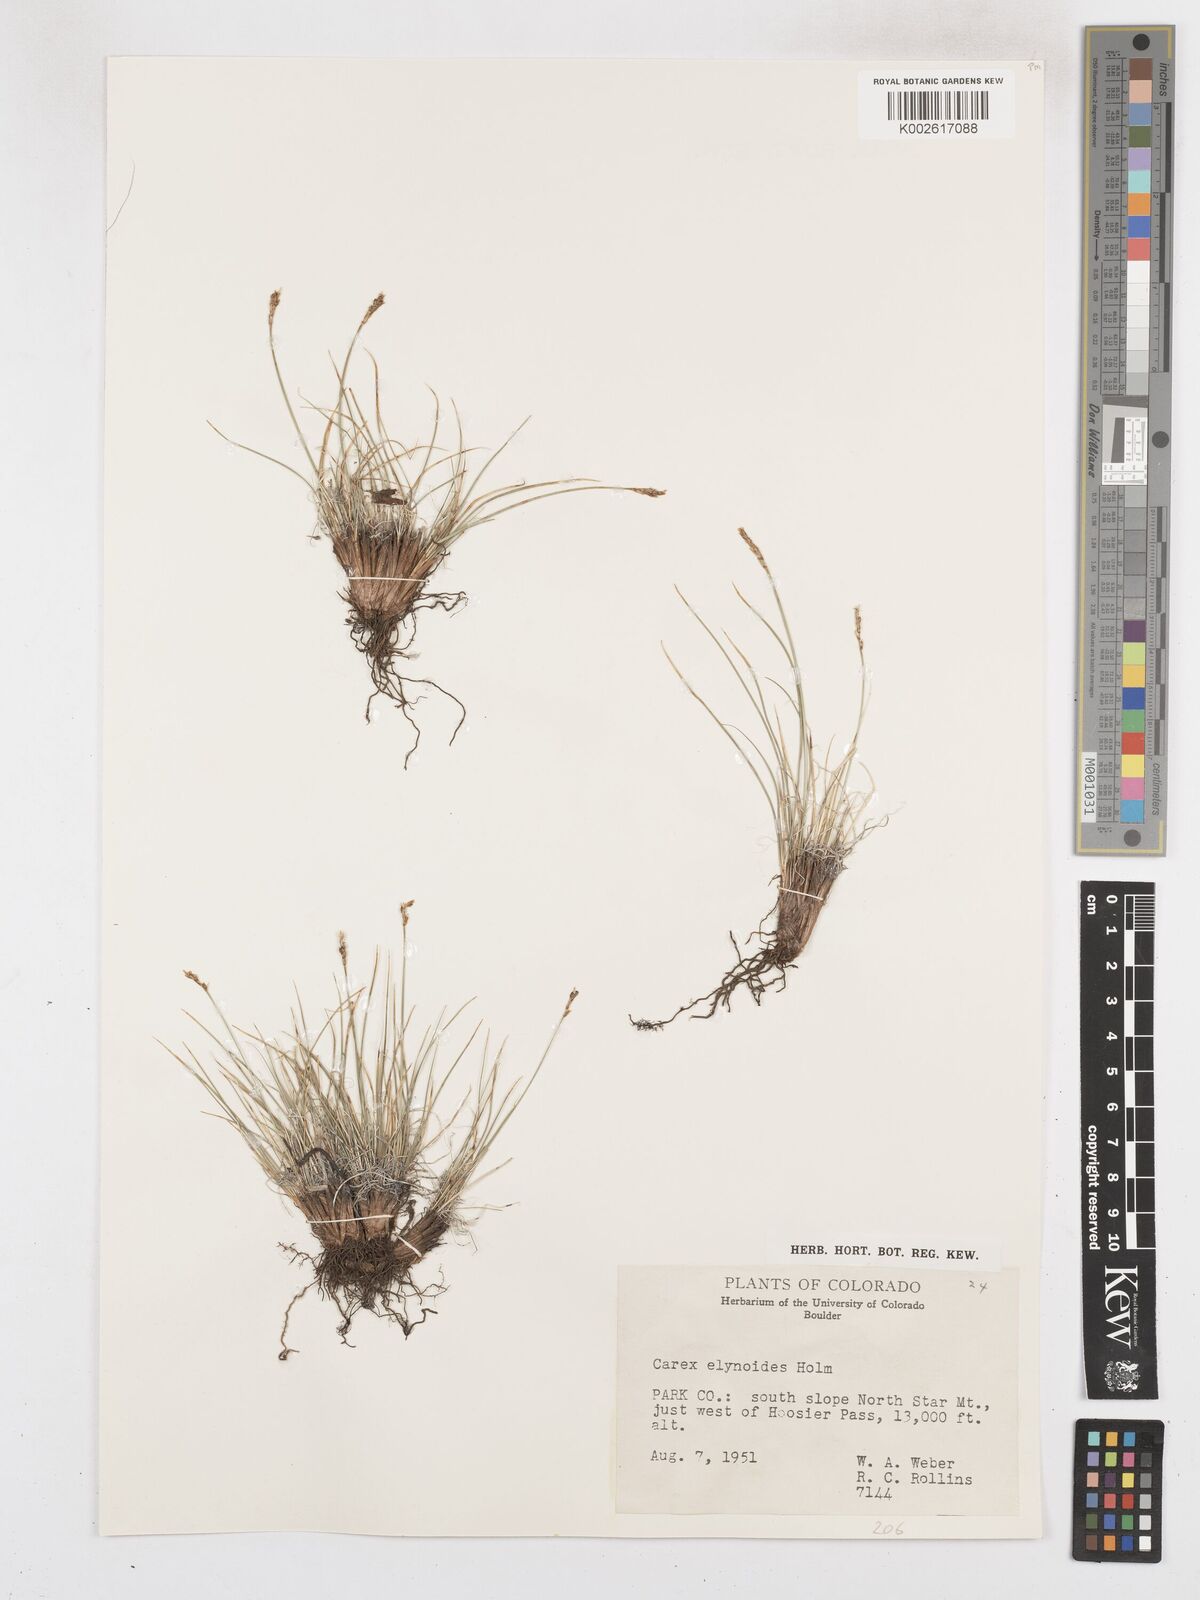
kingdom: Plantae
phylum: Tracheophyta
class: Liliopsida
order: Poales
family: Cyperaceae
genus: Carex
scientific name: Carex elynoides
